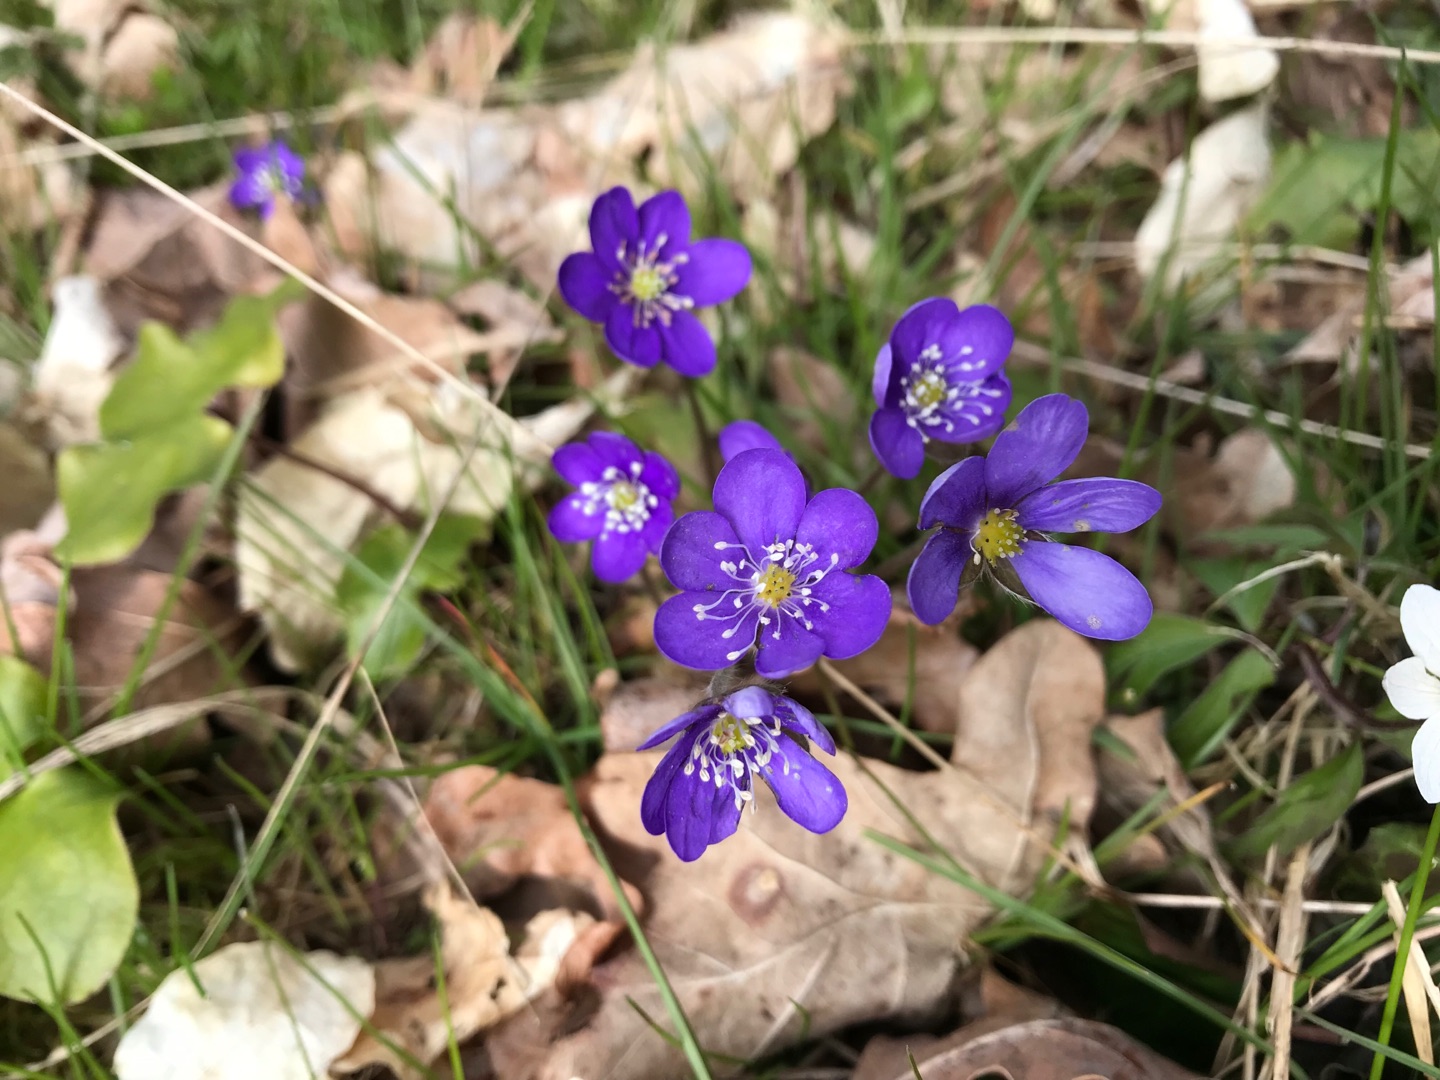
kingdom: Plantae
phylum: Tracheophyta
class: Magnoliopsida
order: Ranunculales
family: Ranunculaceae
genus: Hepatica
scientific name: Hepatica nobilis
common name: Blå anemone
